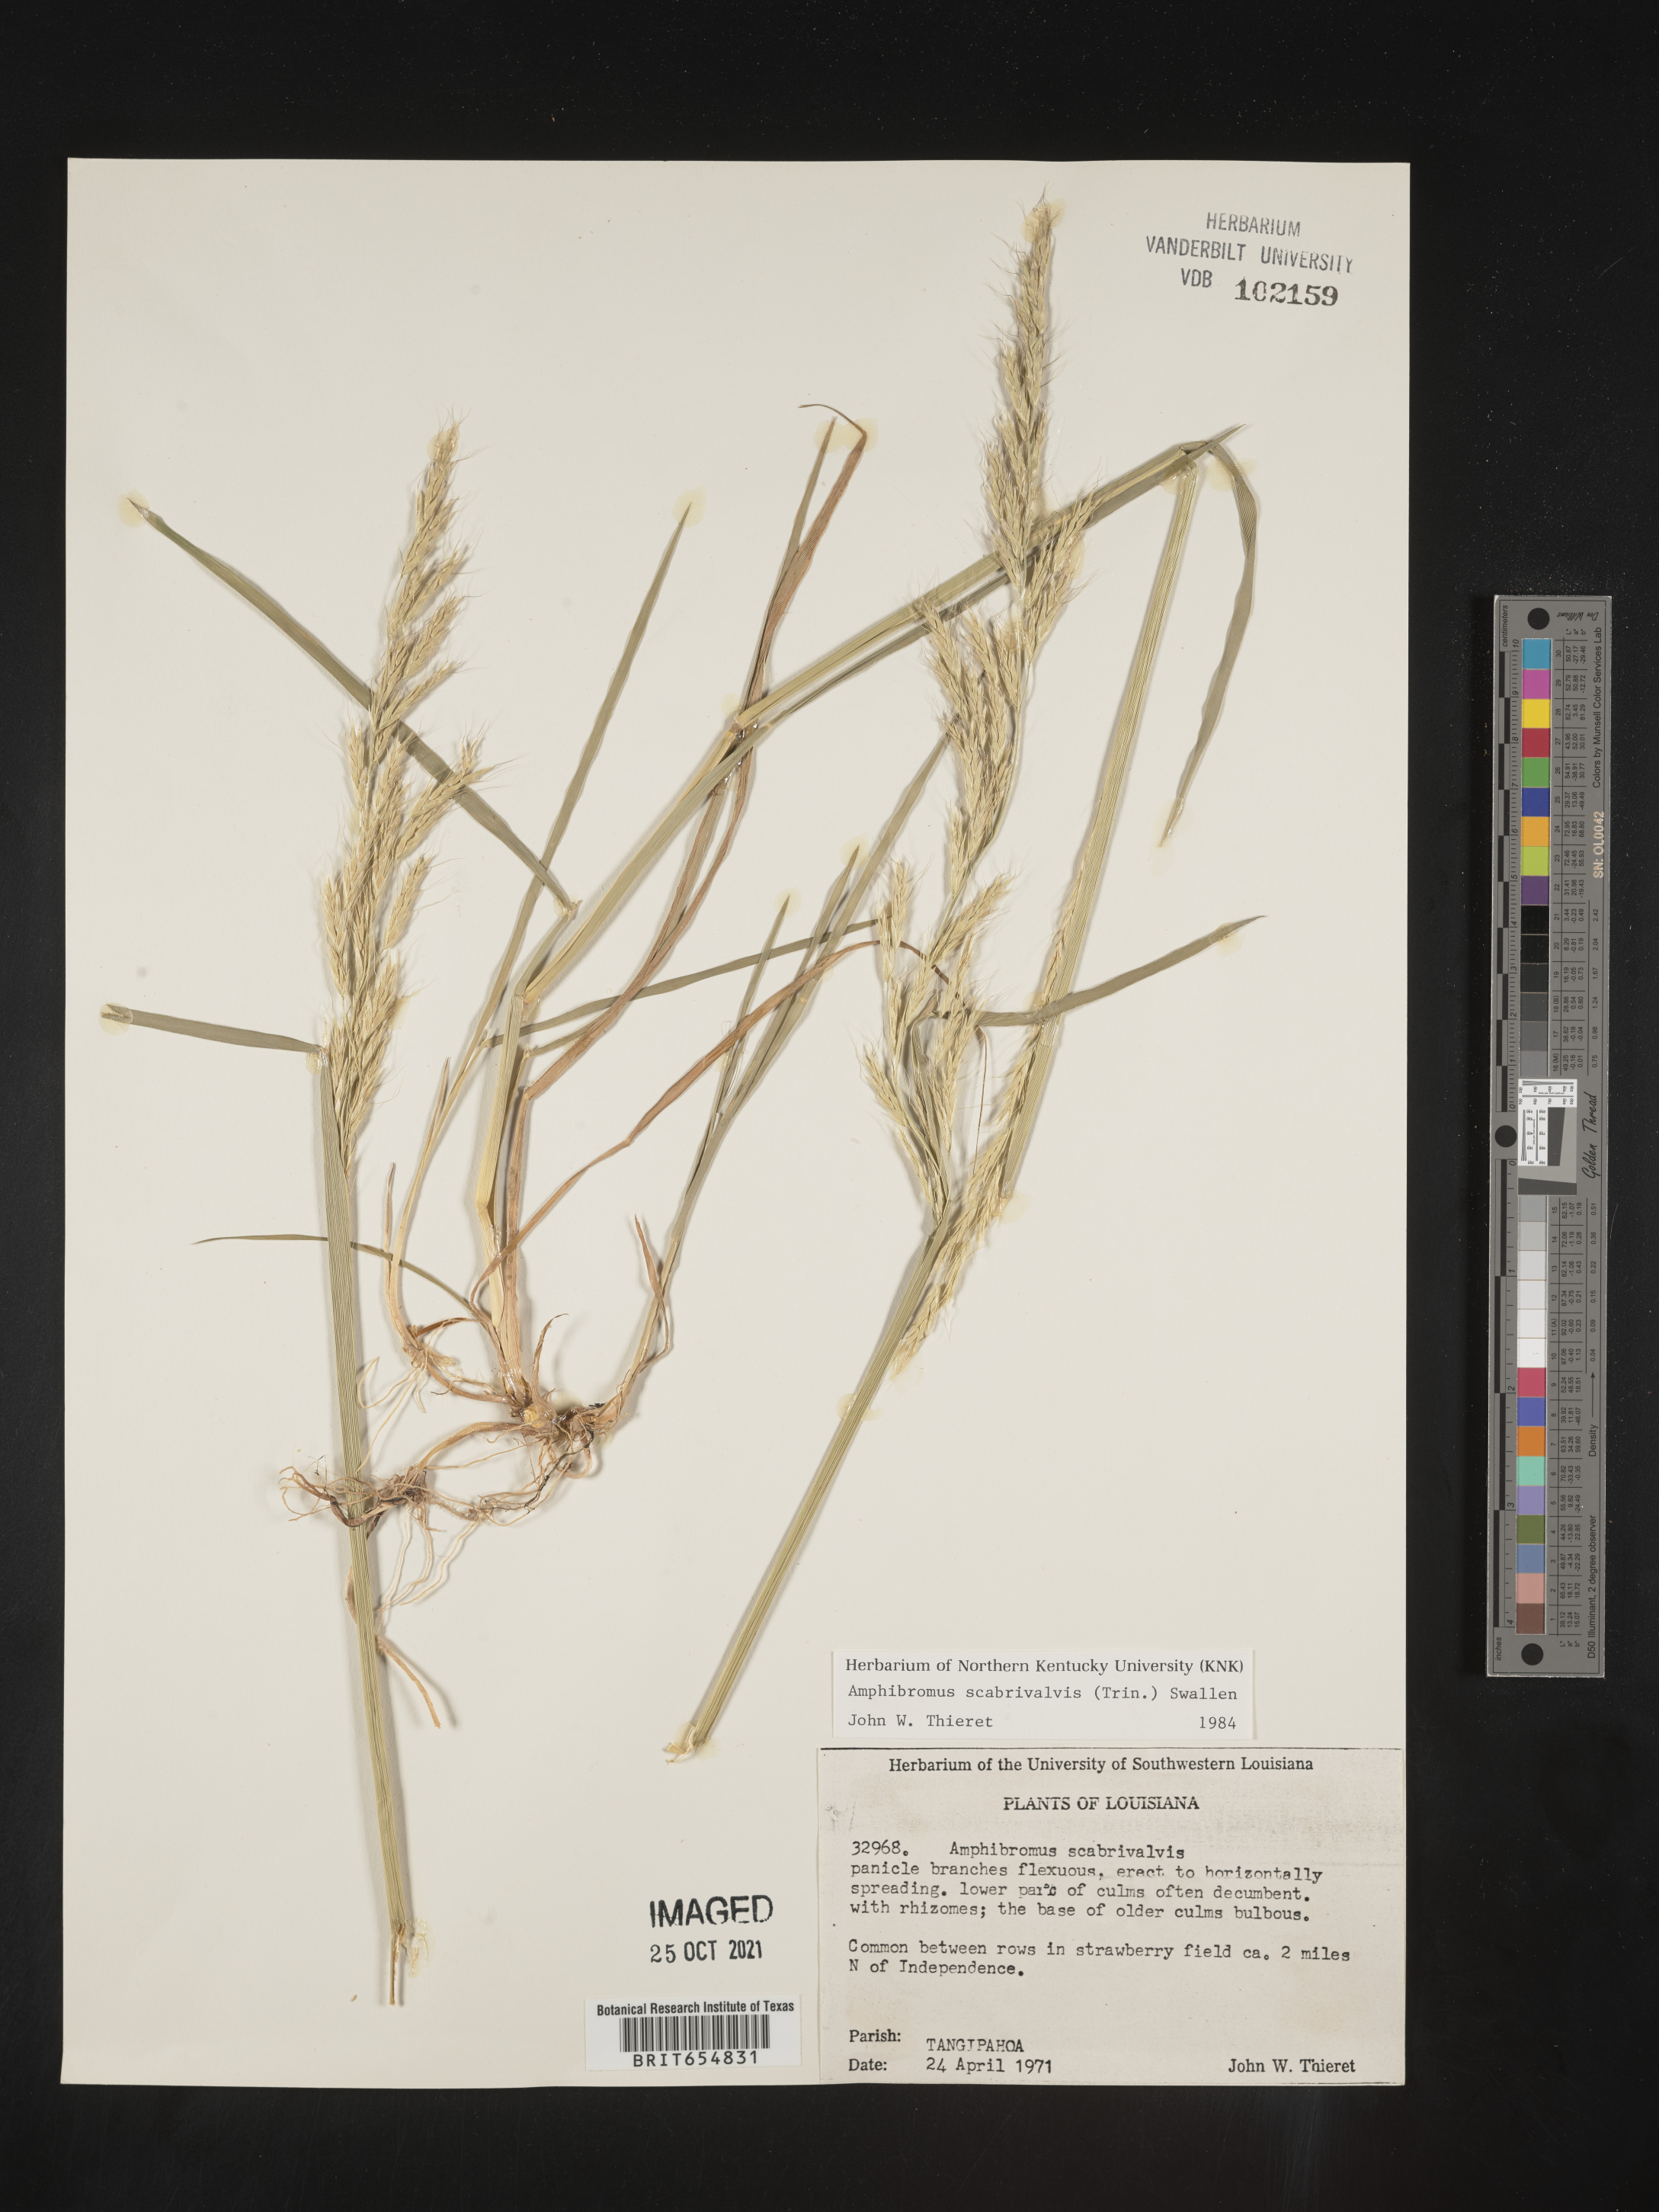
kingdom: Plantae
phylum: Tracheophyta
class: Liliopsida
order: Poales
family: Poaceae
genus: Amphibromus
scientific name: Amphibromus
